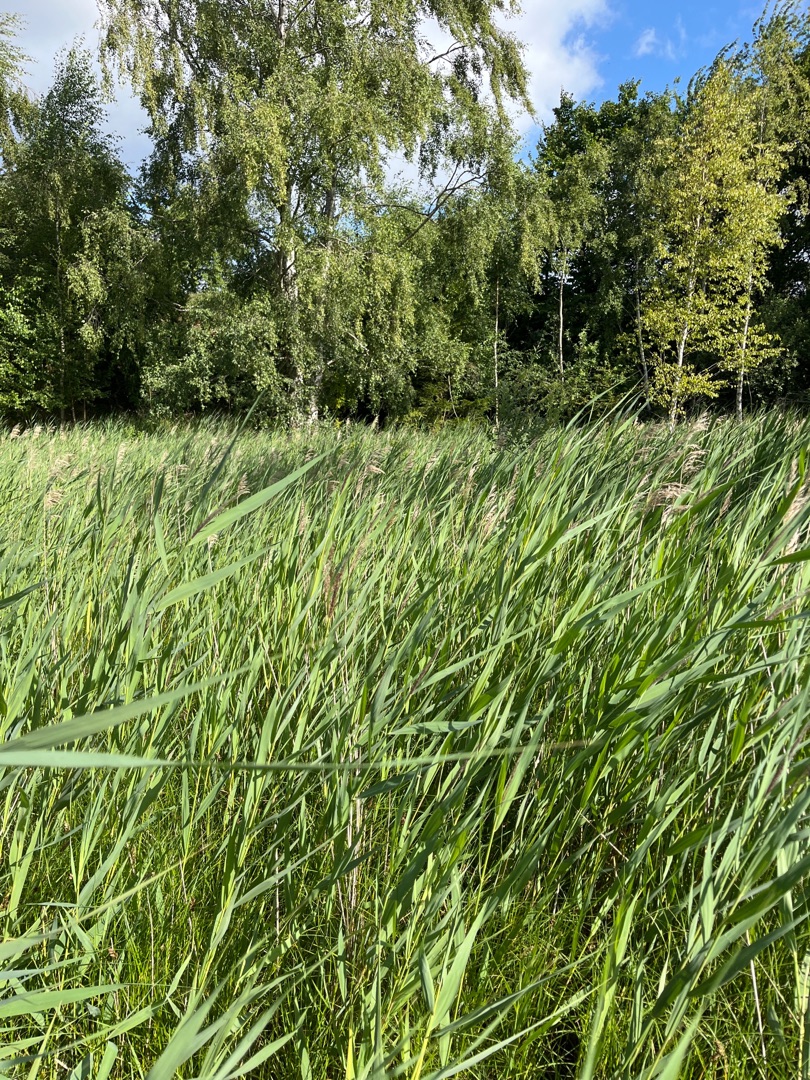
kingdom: Plantae
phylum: Tracheophyta
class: Liliopsida
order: Poales
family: Poaceae
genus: Phragmites
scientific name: Phragmites australis
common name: Tagrør
